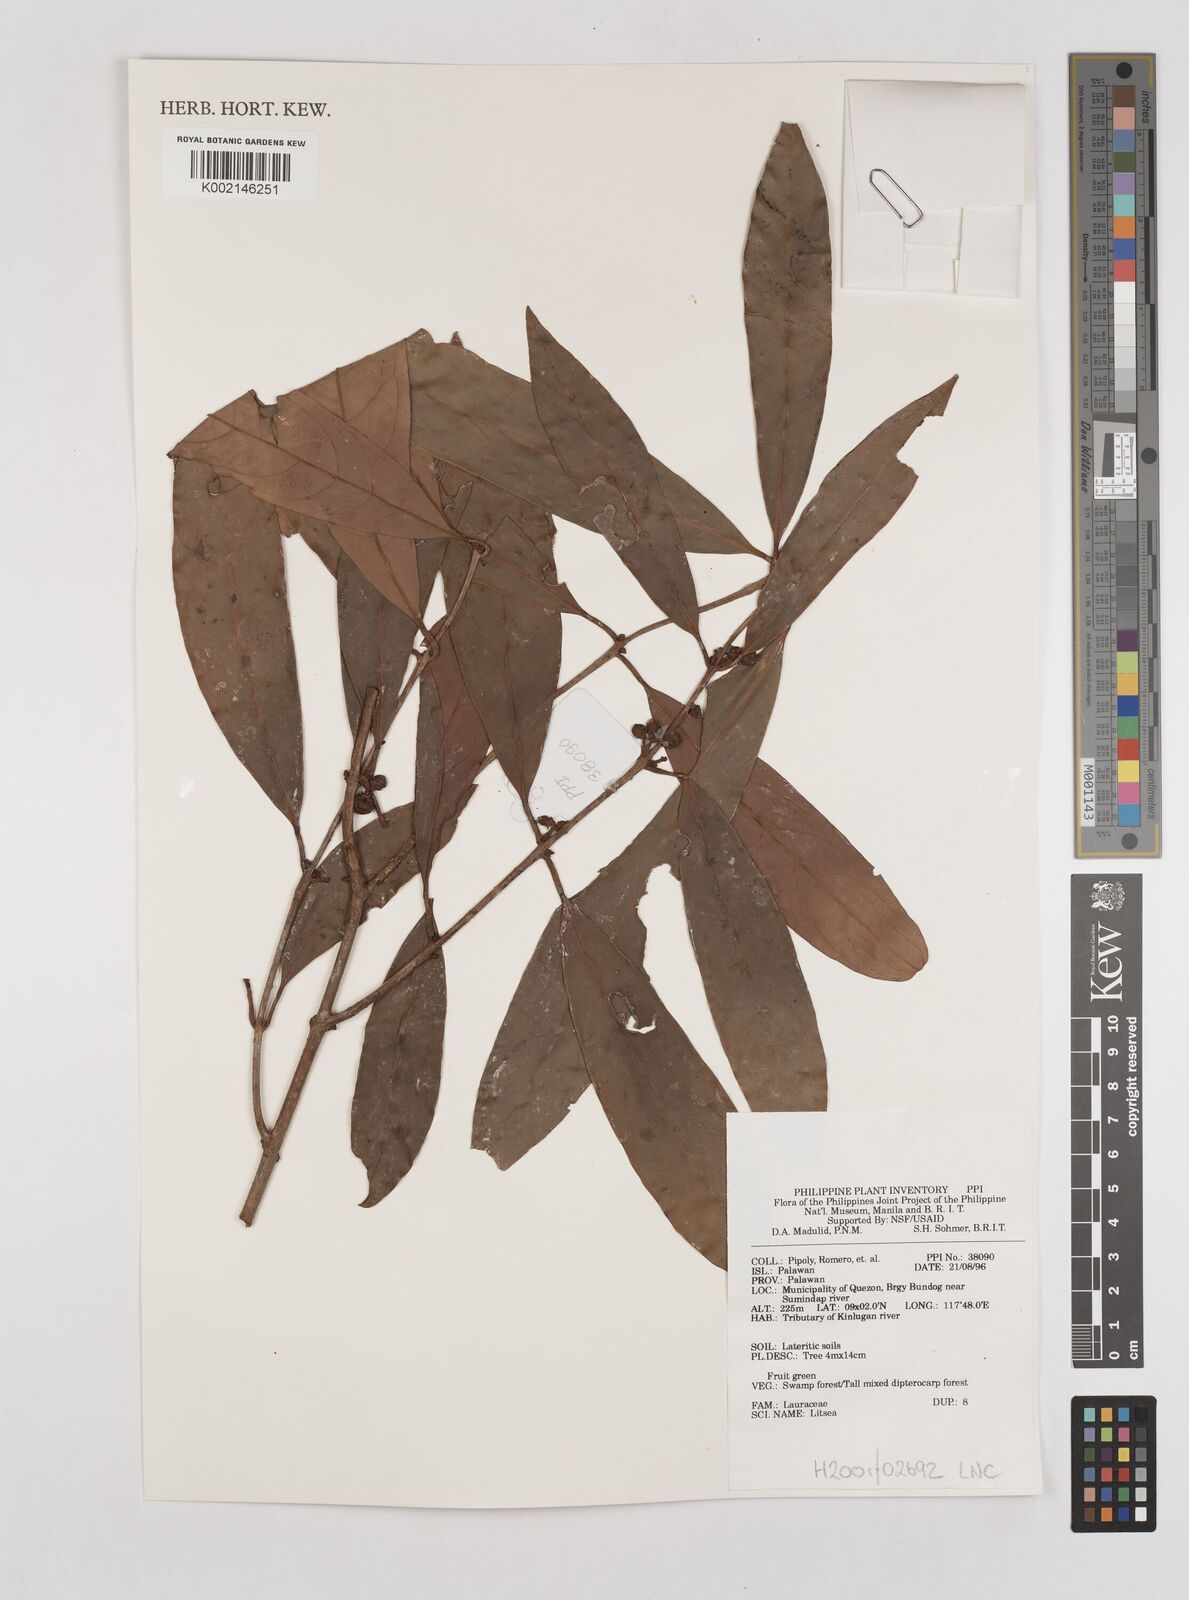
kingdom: Plantae
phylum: Tracheophyta
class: Magnoliopsida
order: Laurales
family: Lauraceae
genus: Litsea
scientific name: Litsea
